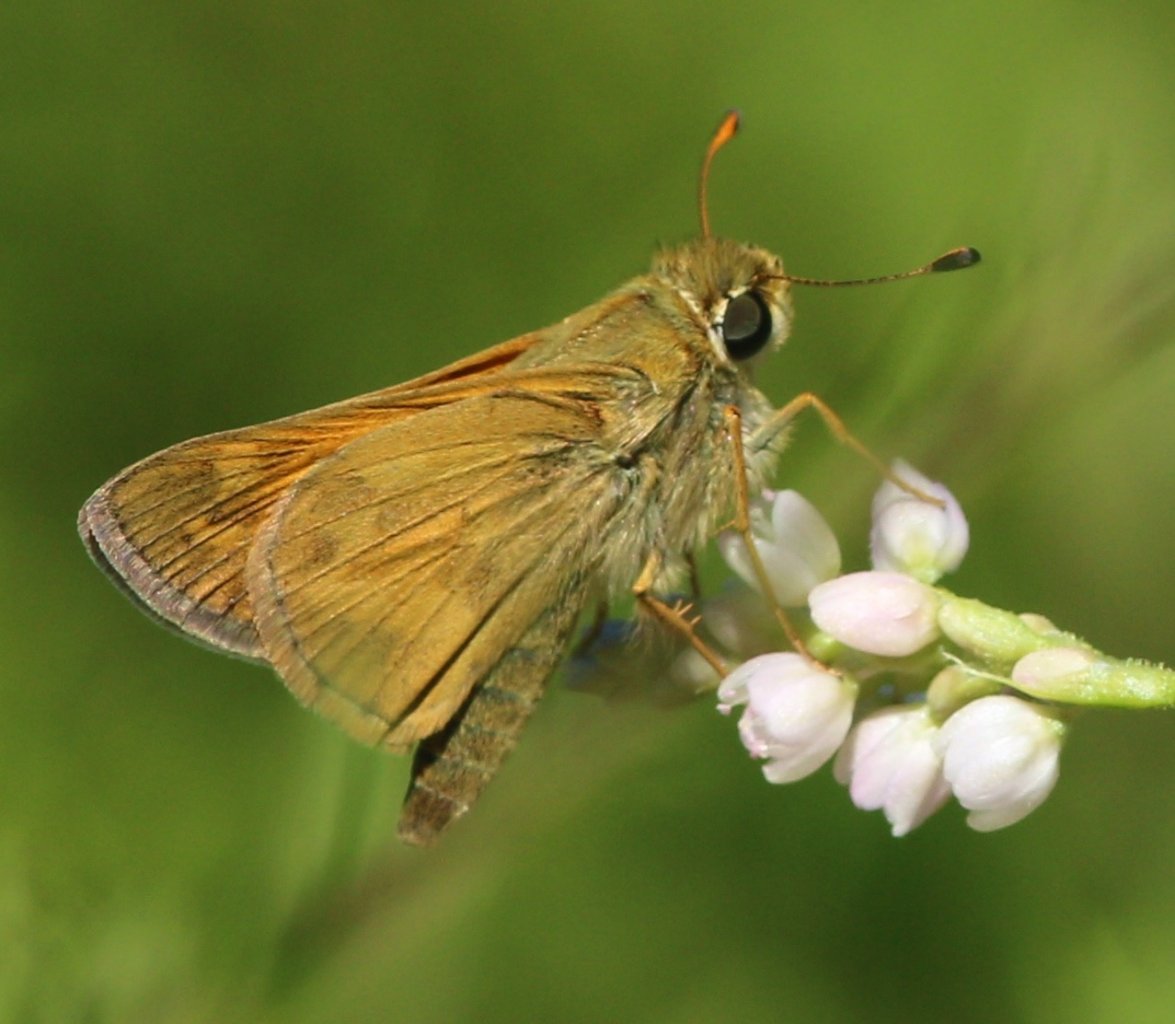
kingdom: Animalia
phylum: Arthropoda
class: Insecta
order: Lepidoptera
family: Hesperiidae
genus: Atalopedes
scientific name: Atalopedes campestris
